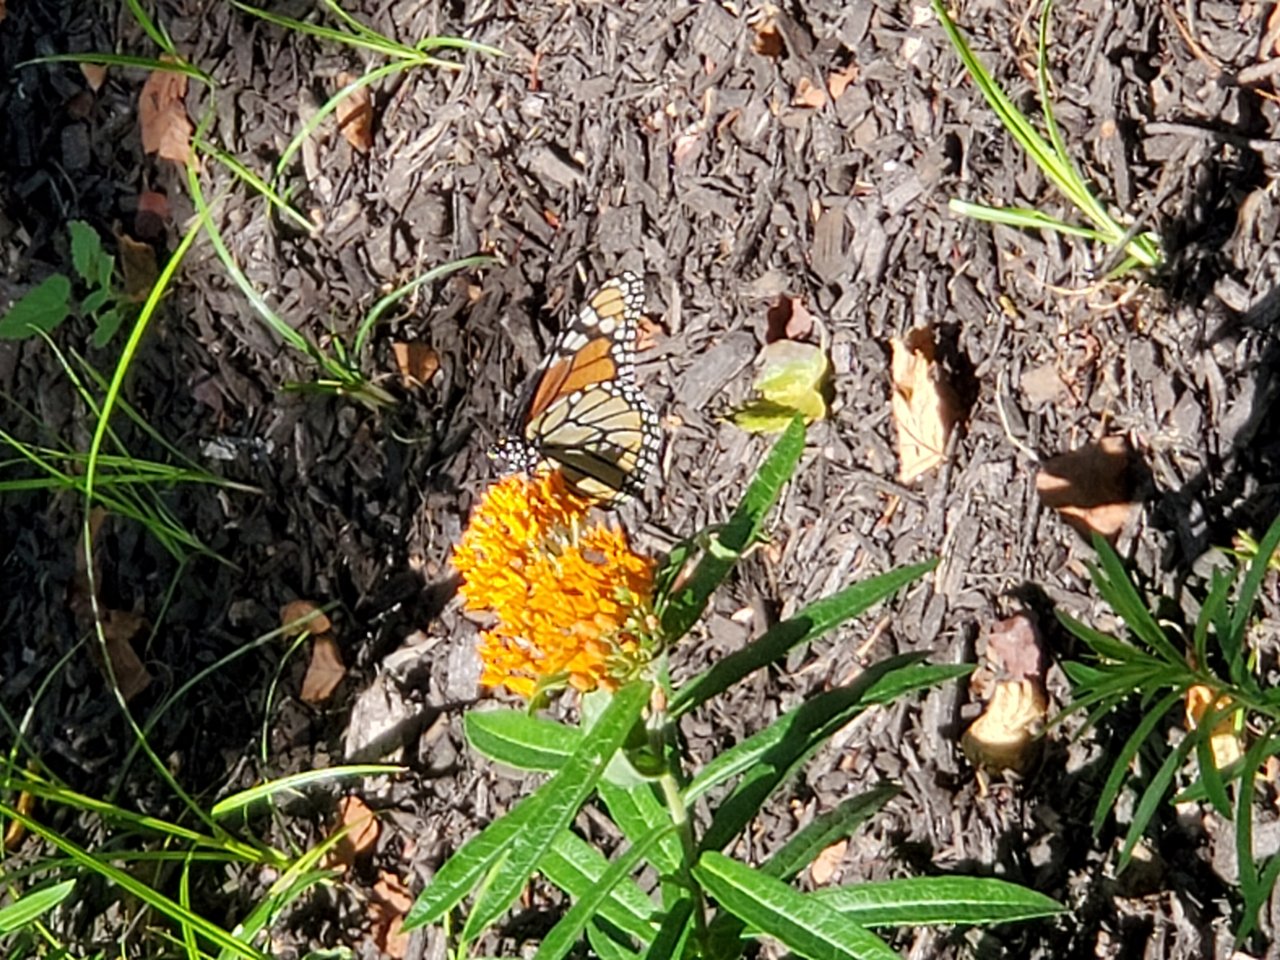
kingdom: Animalia
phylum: Arthropoda
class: Insecta
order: Lepidoptera
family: Nymphalidae
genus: Danaus
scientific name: Danaus plexippus
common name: Monarch
